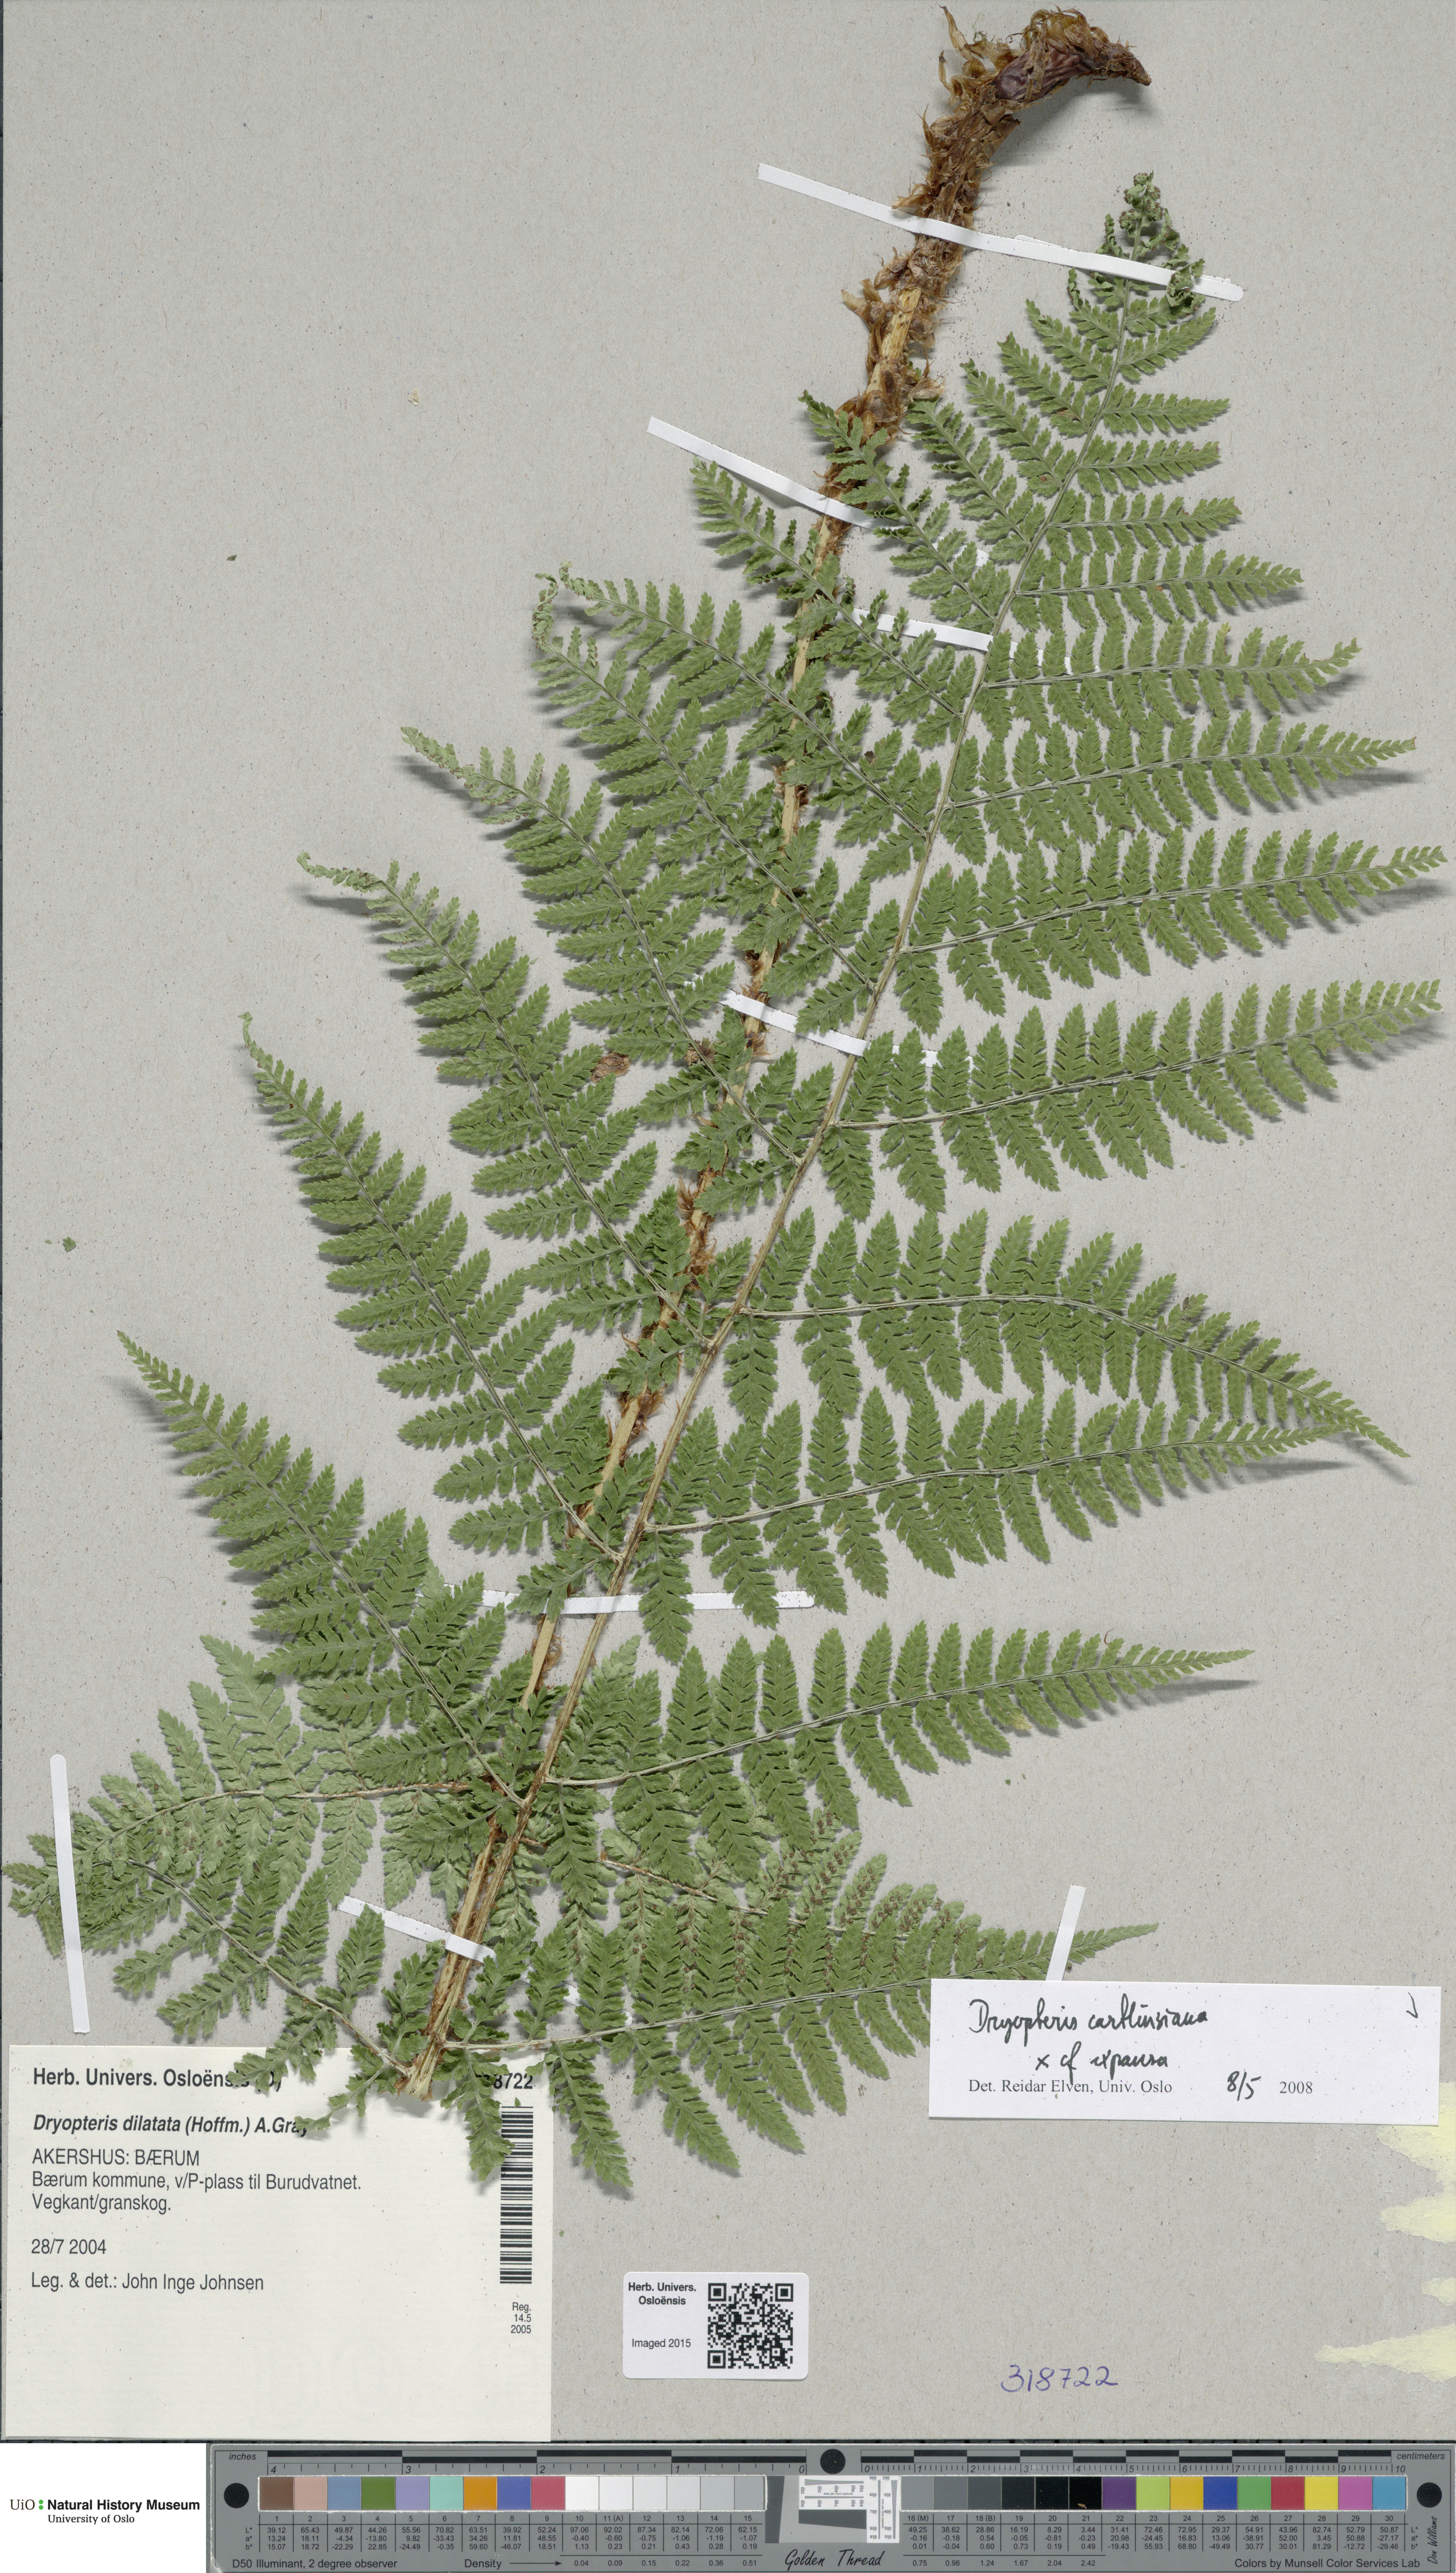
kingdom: Plantae
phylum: Tracheophyta
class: Polypodiopsida
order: Polypodiales
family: Dryopteridaceae
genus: Dryopteris
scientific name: Dryopteris
